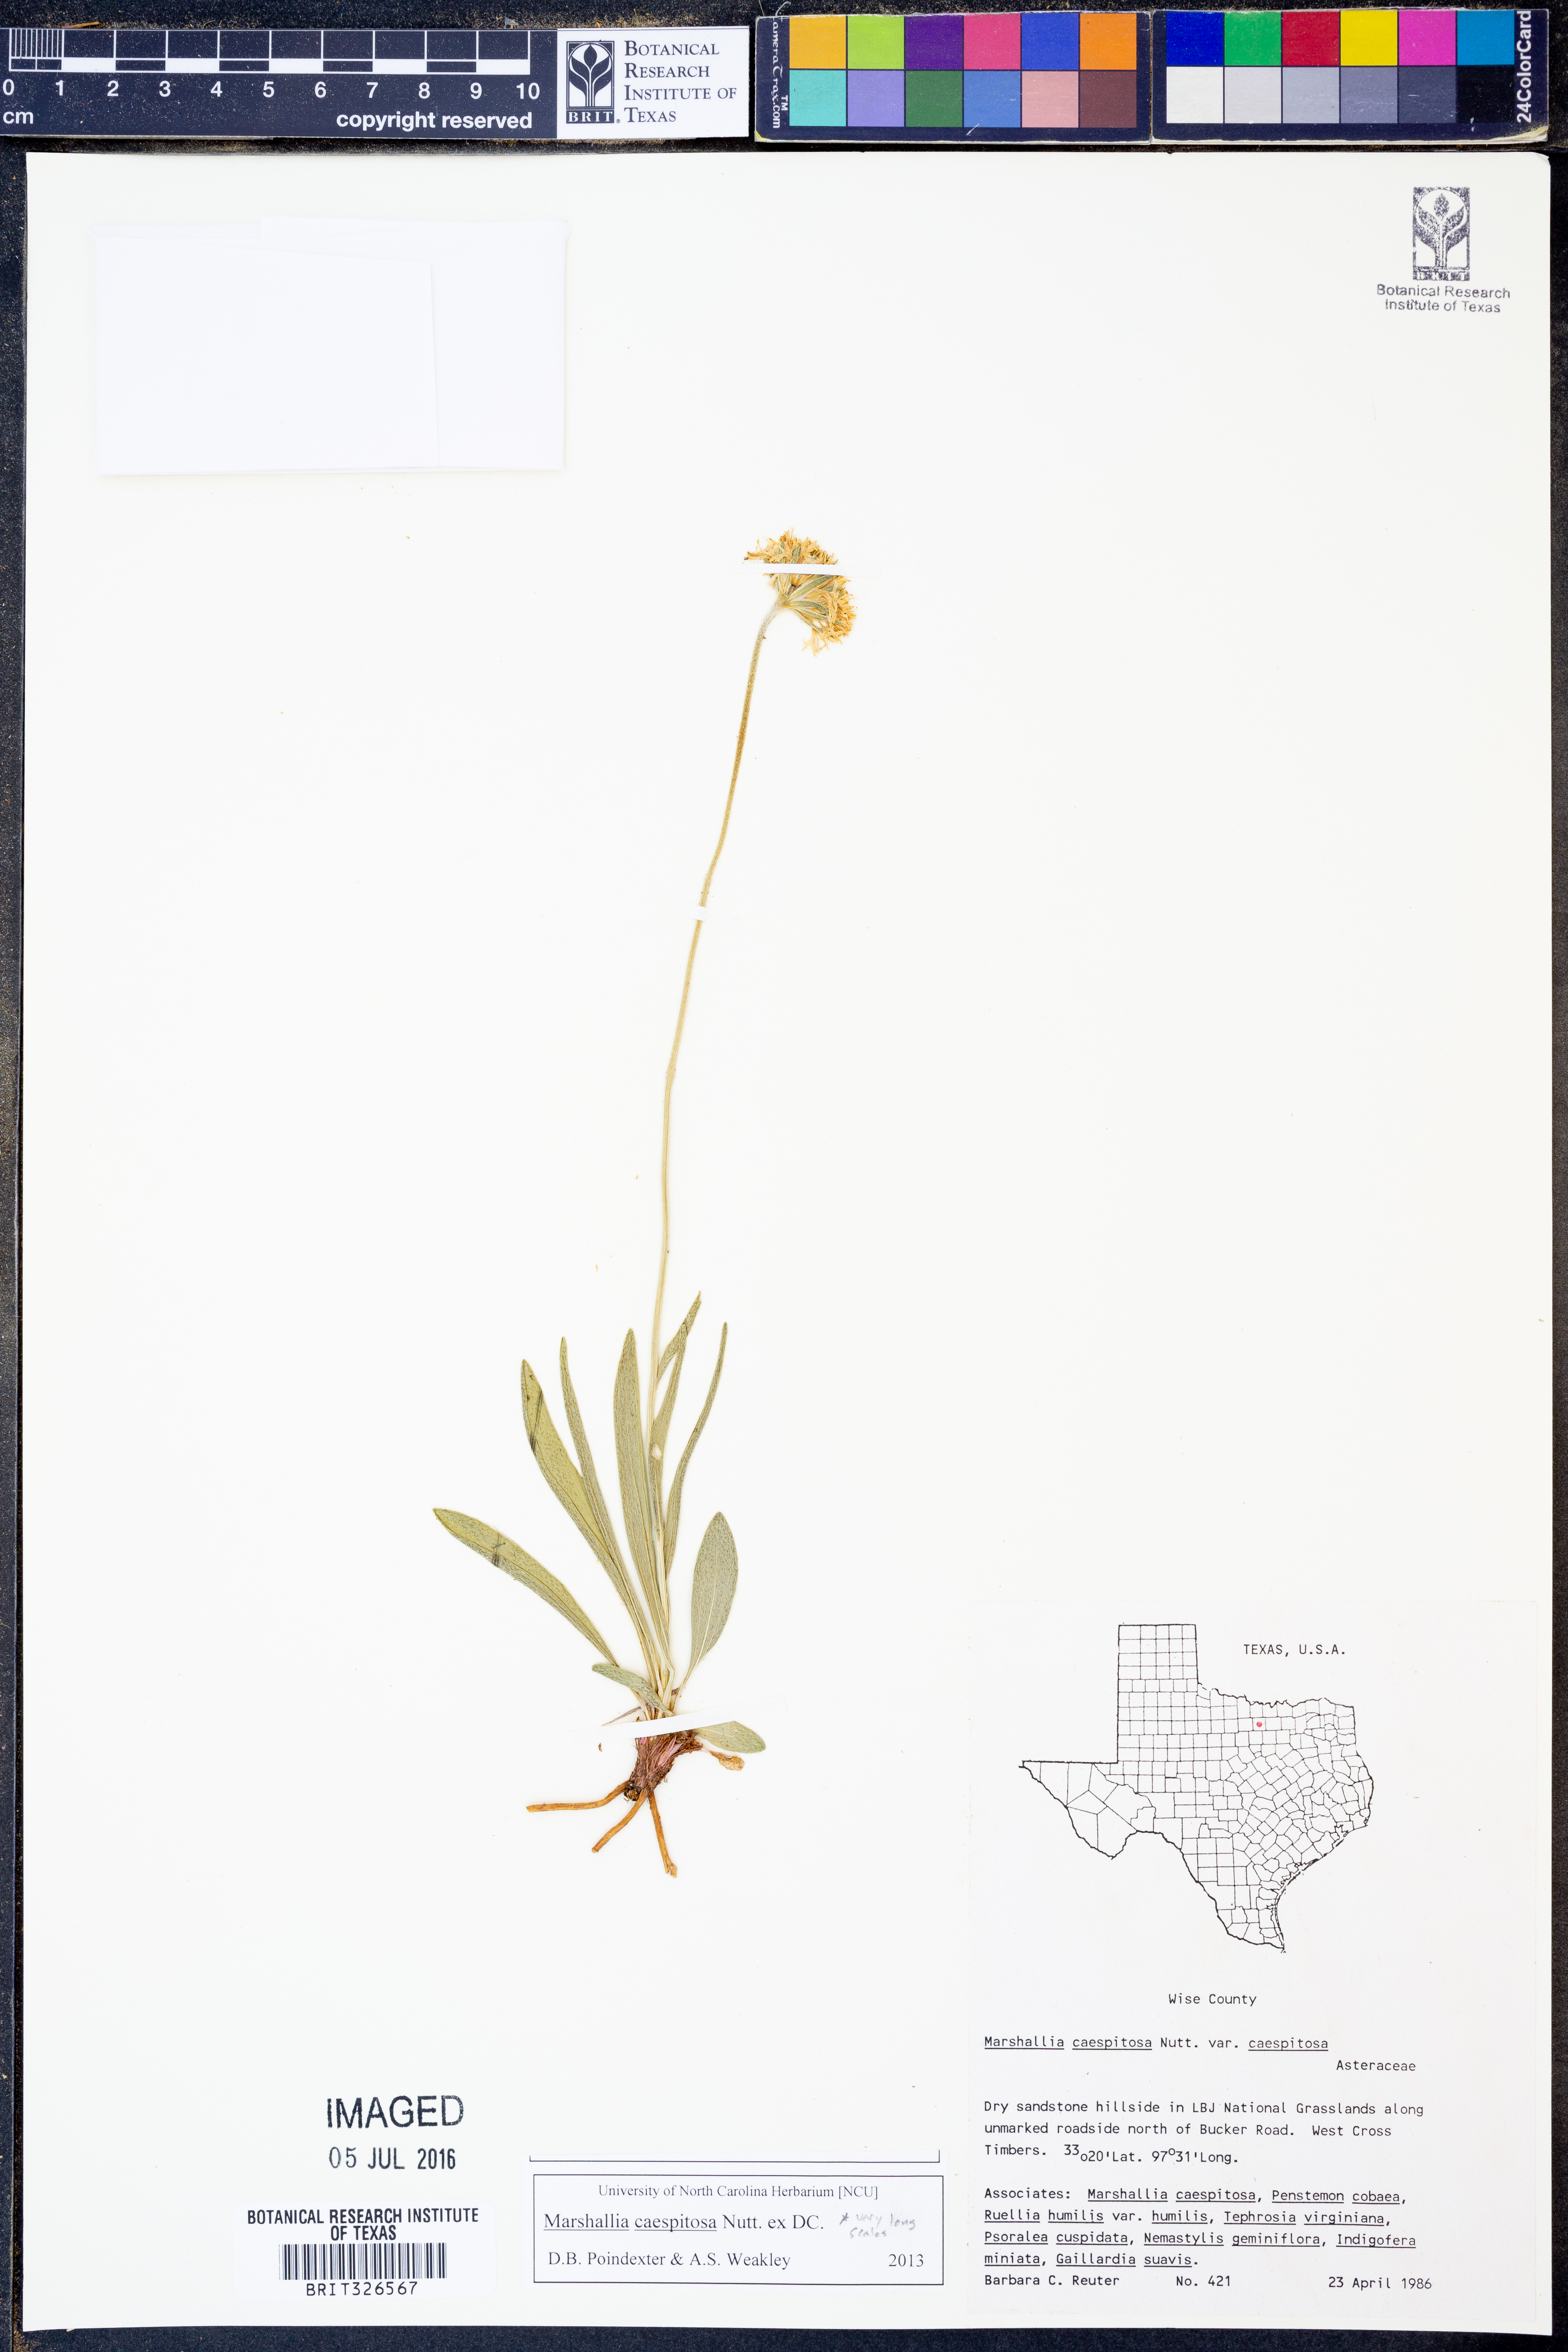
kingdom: Plantae
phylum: Tracheophyta
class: Magnoliopsida
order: Asterales
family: Asteraceae
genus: Marshallia
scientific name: Marshallia caespitosa
